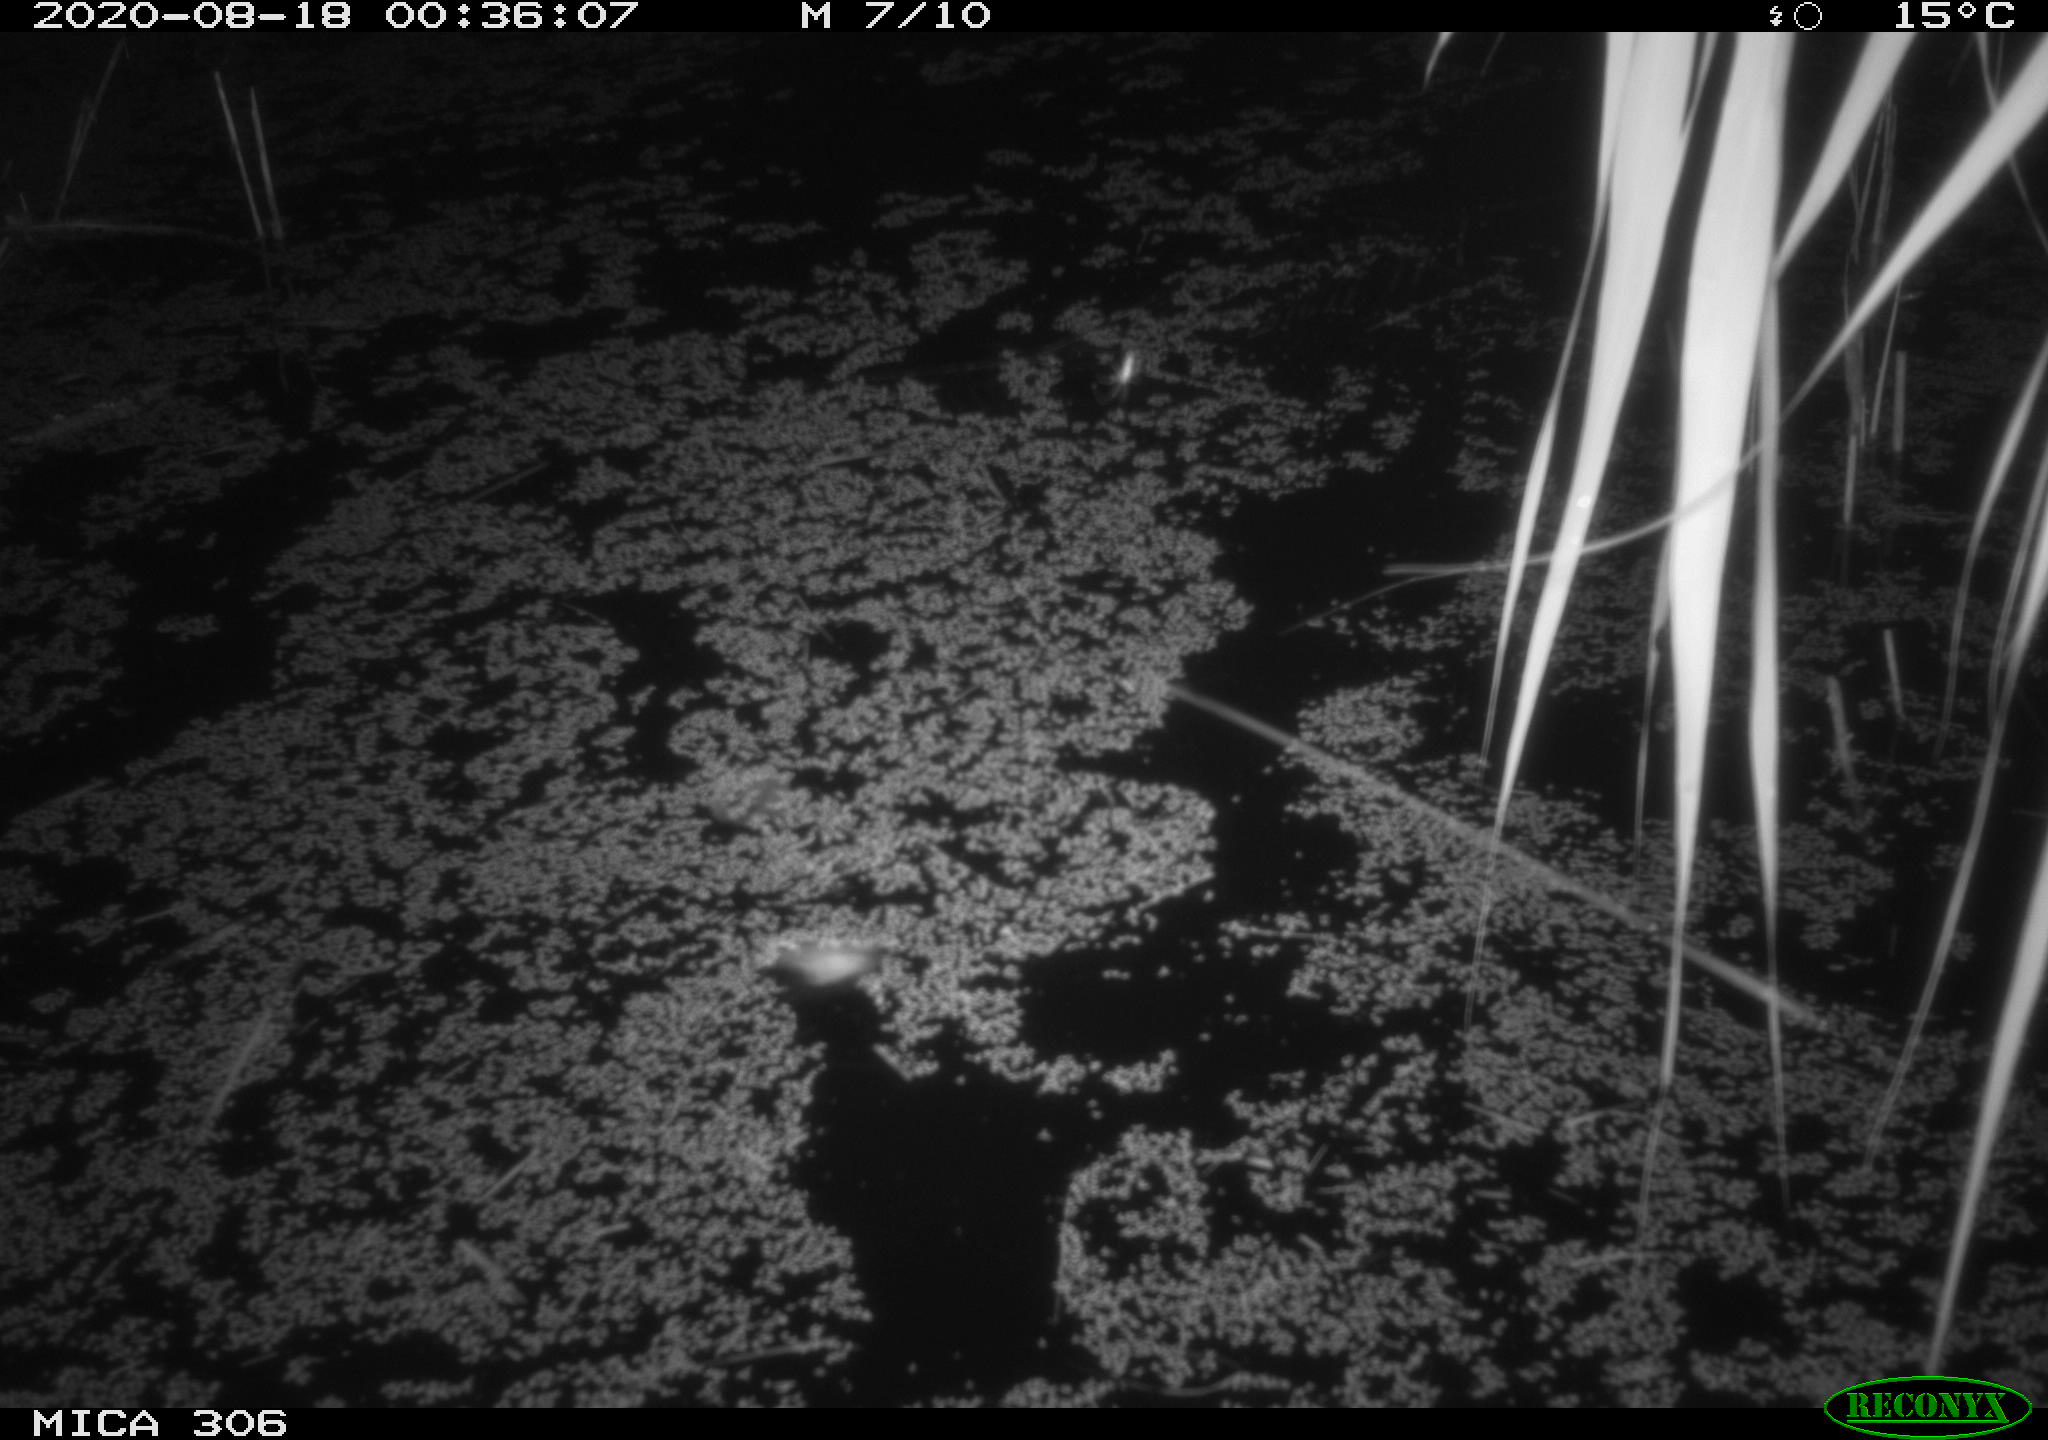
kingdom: Animalia
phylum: Chordata
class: Mammalia
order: Rodentia
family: Cricetidae
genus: Ondatra
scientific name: Ondatra zibethicus
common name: Muskrat
